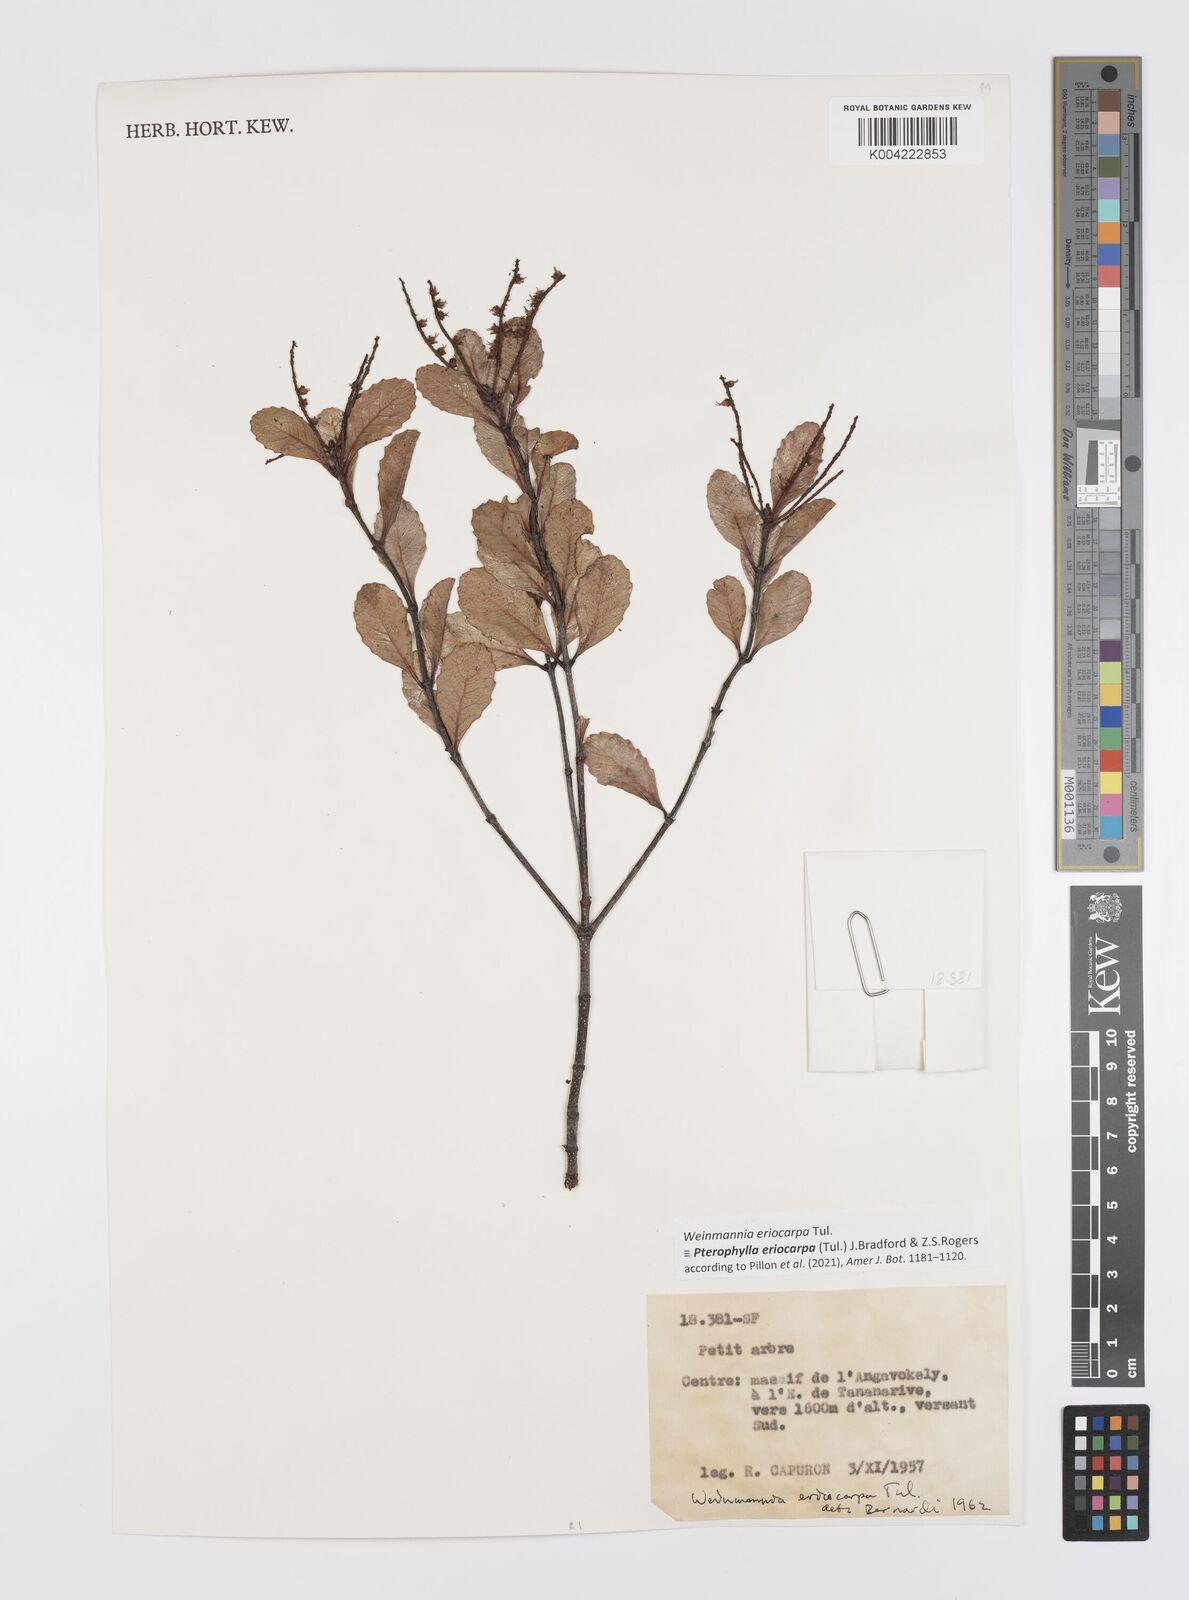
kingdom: Plantae
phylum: Tracheophyta
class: Magnoliopsida
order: Oxalidales
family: Cunoniaceae
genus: Pterophylla
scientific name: Pterophylla eriocarpa
